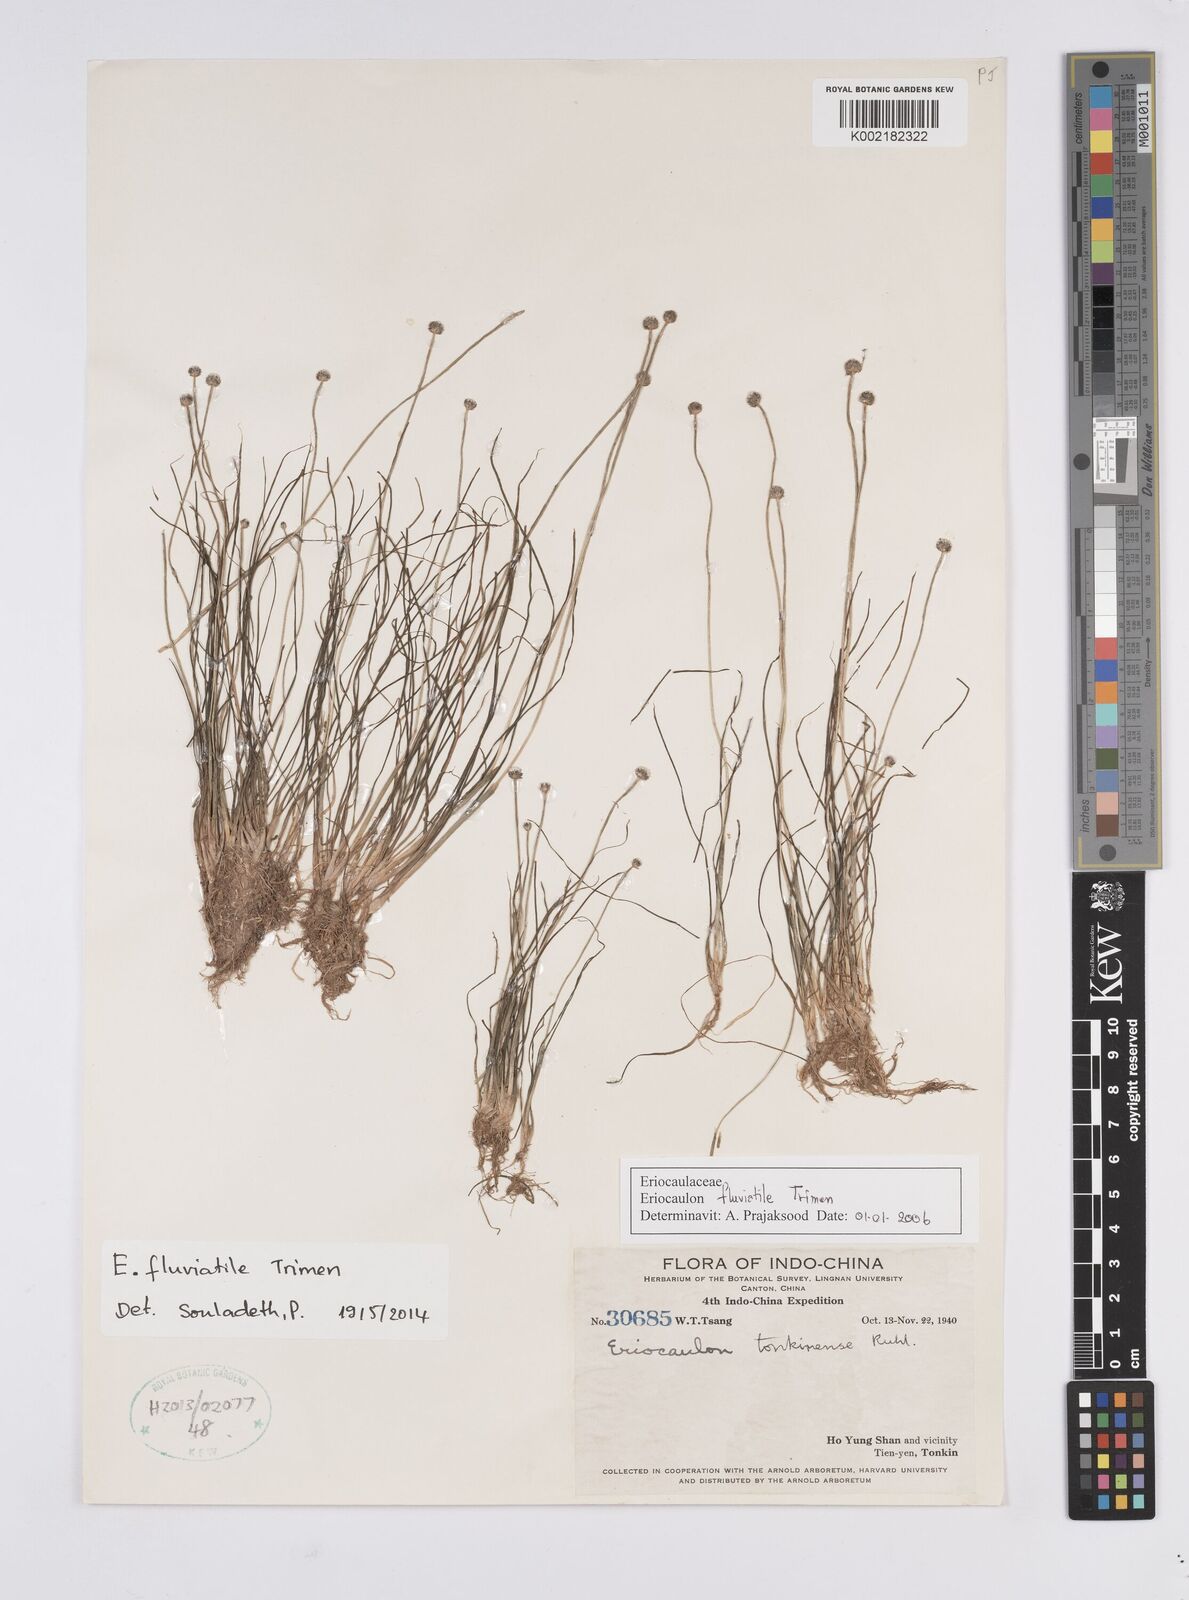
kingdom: Plantae
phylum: Tracheophyta
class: Liliopsida
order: Poales
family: Eriocaulaceae
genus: Eriocaulon
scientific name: Eriocaulon fluviatile
